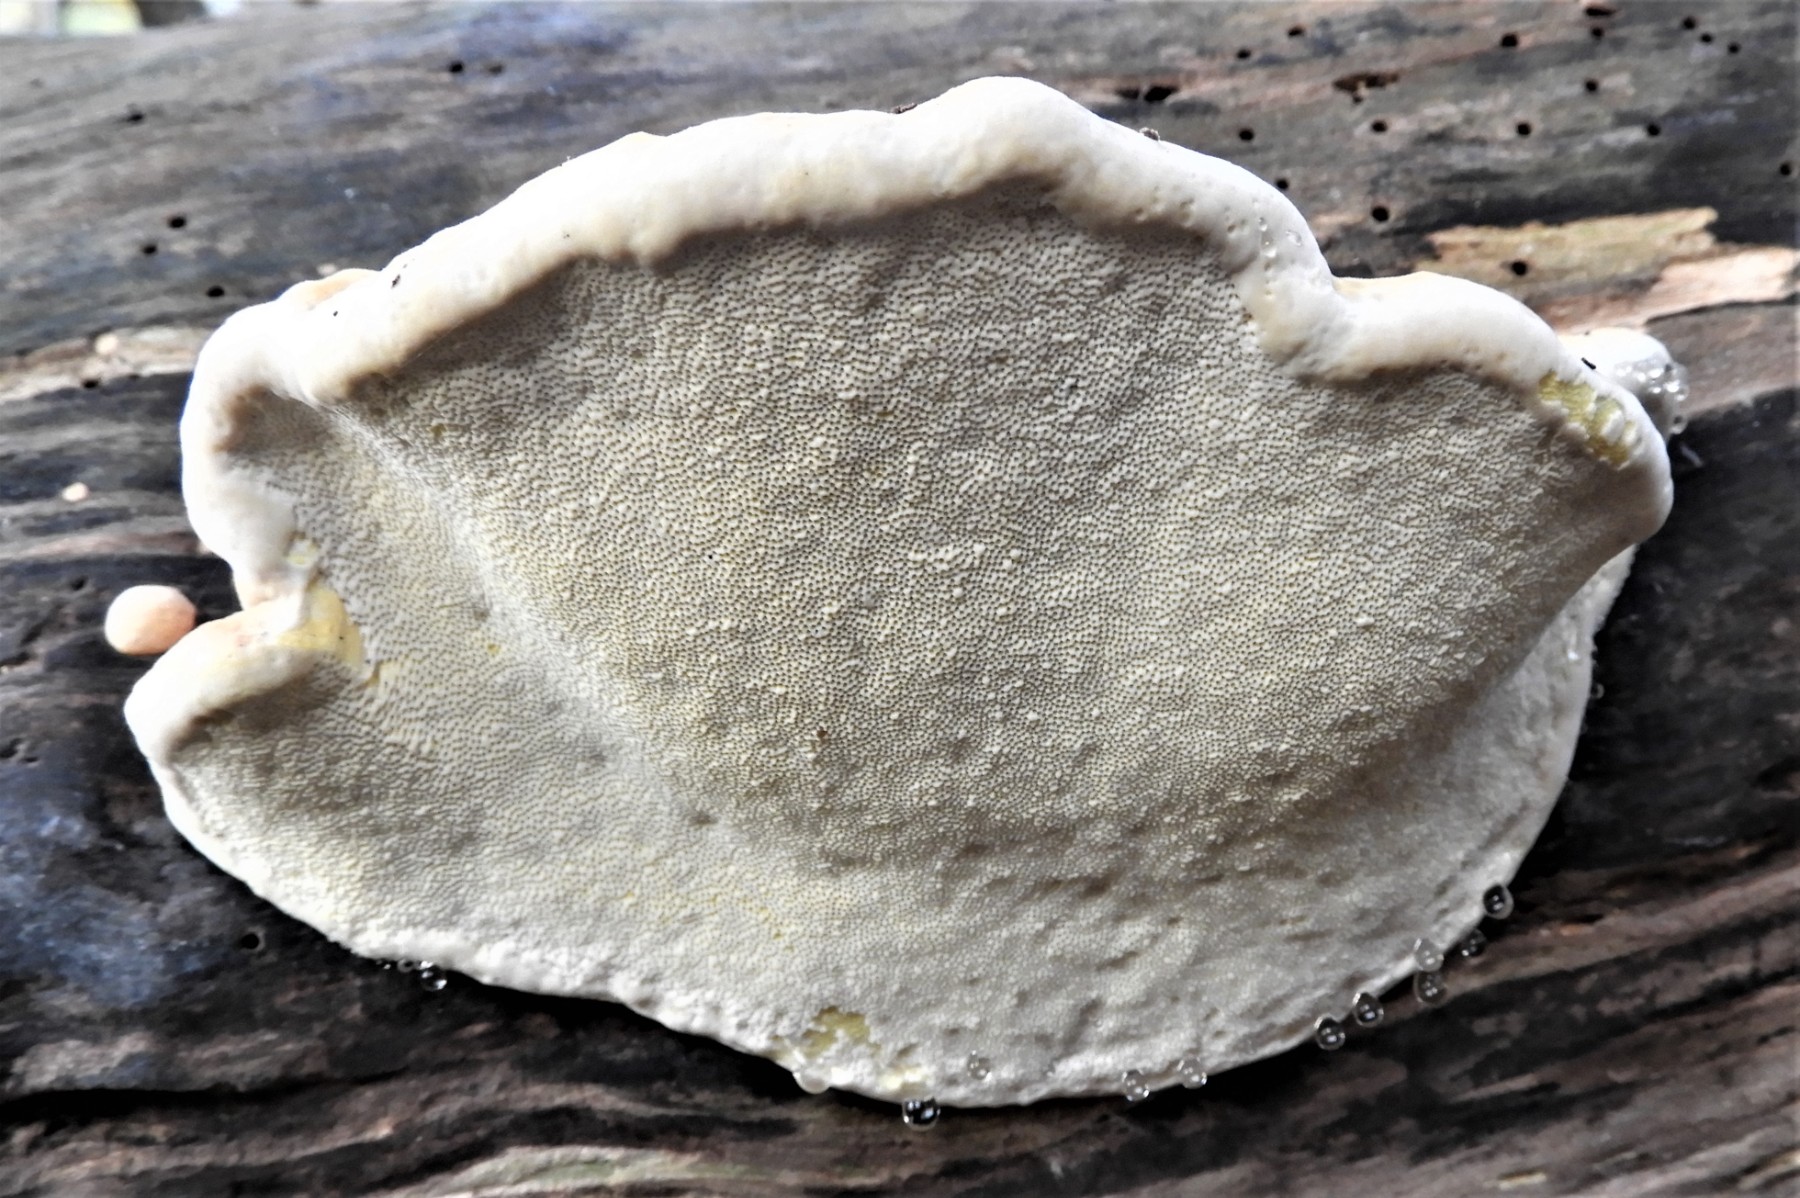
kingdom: Fungi
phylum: Basidiomycota
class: Agaricomycetes
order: Polyporales
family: Fomitopsidaceae
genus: Fomitopsis
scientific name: Fomitopsis pinicola
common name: randbæltet hovporesvamp
